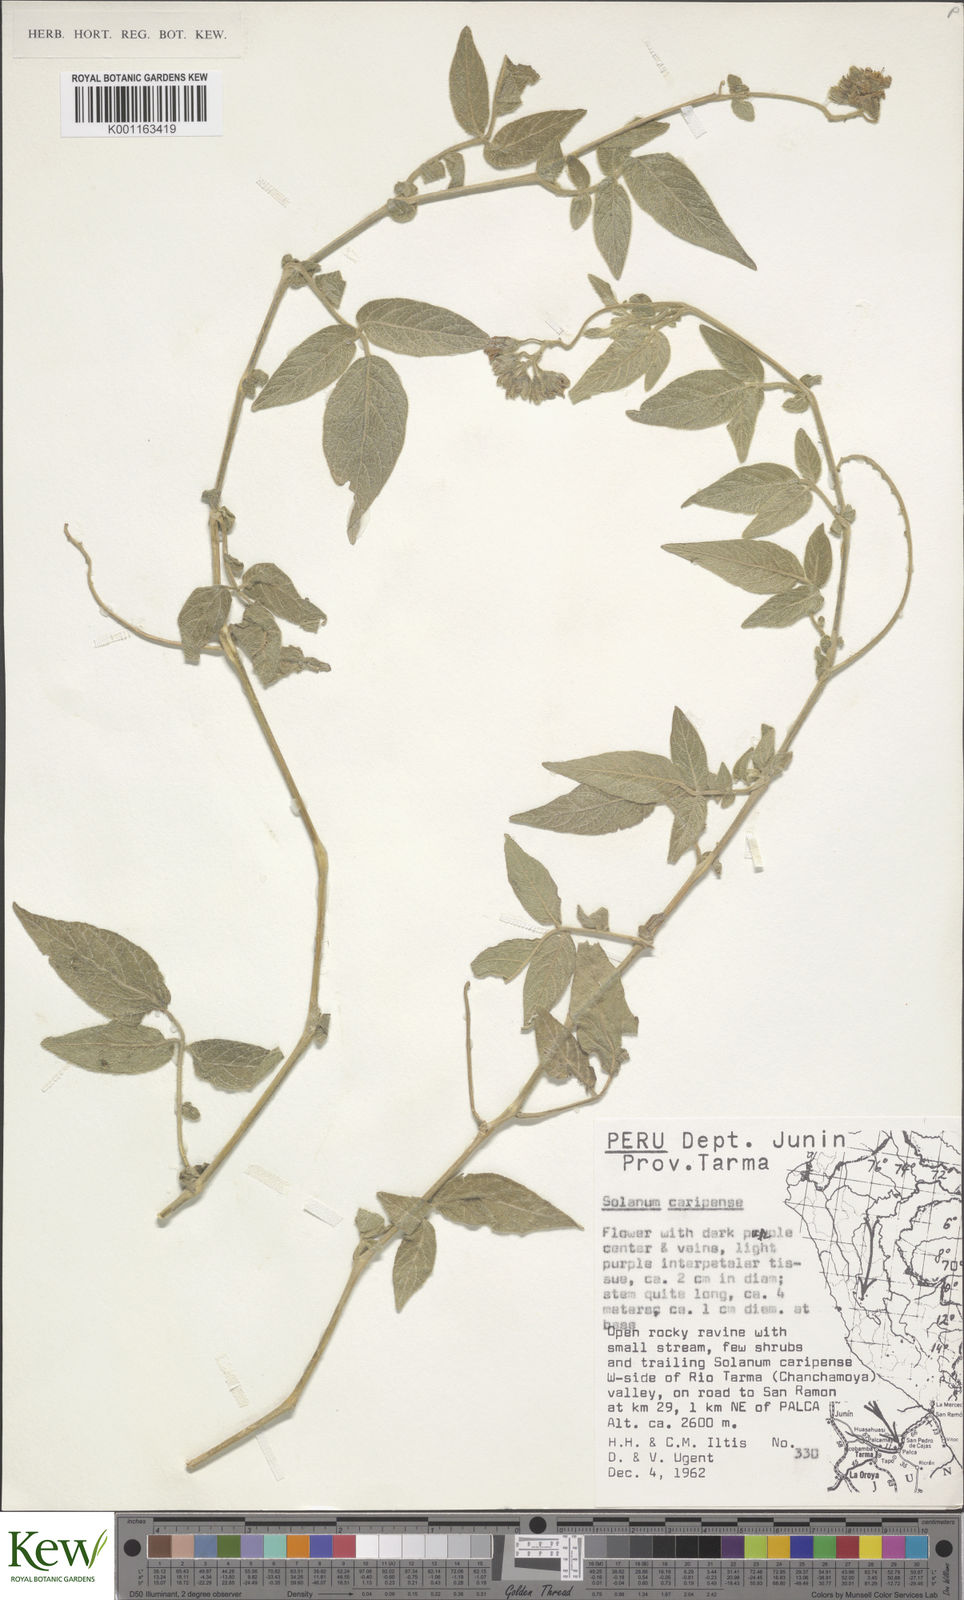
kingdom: Plantae
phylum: Tracheophyta
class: Magnoliopsida
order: Solanales
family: Solanaceae
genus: Solanum
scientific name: Solanum caripense
